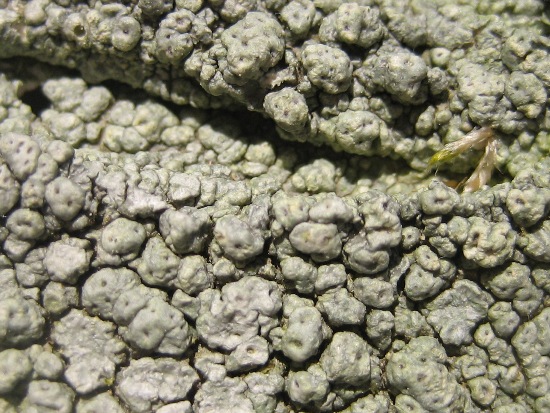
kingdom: Fungi
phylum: Ascomycota
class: Lecanoromycetes
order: Pertusariales
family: Pertusariaceae
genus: Pertusaria
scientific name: Pertusaria pertusa
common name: almindelig prikvortelav
